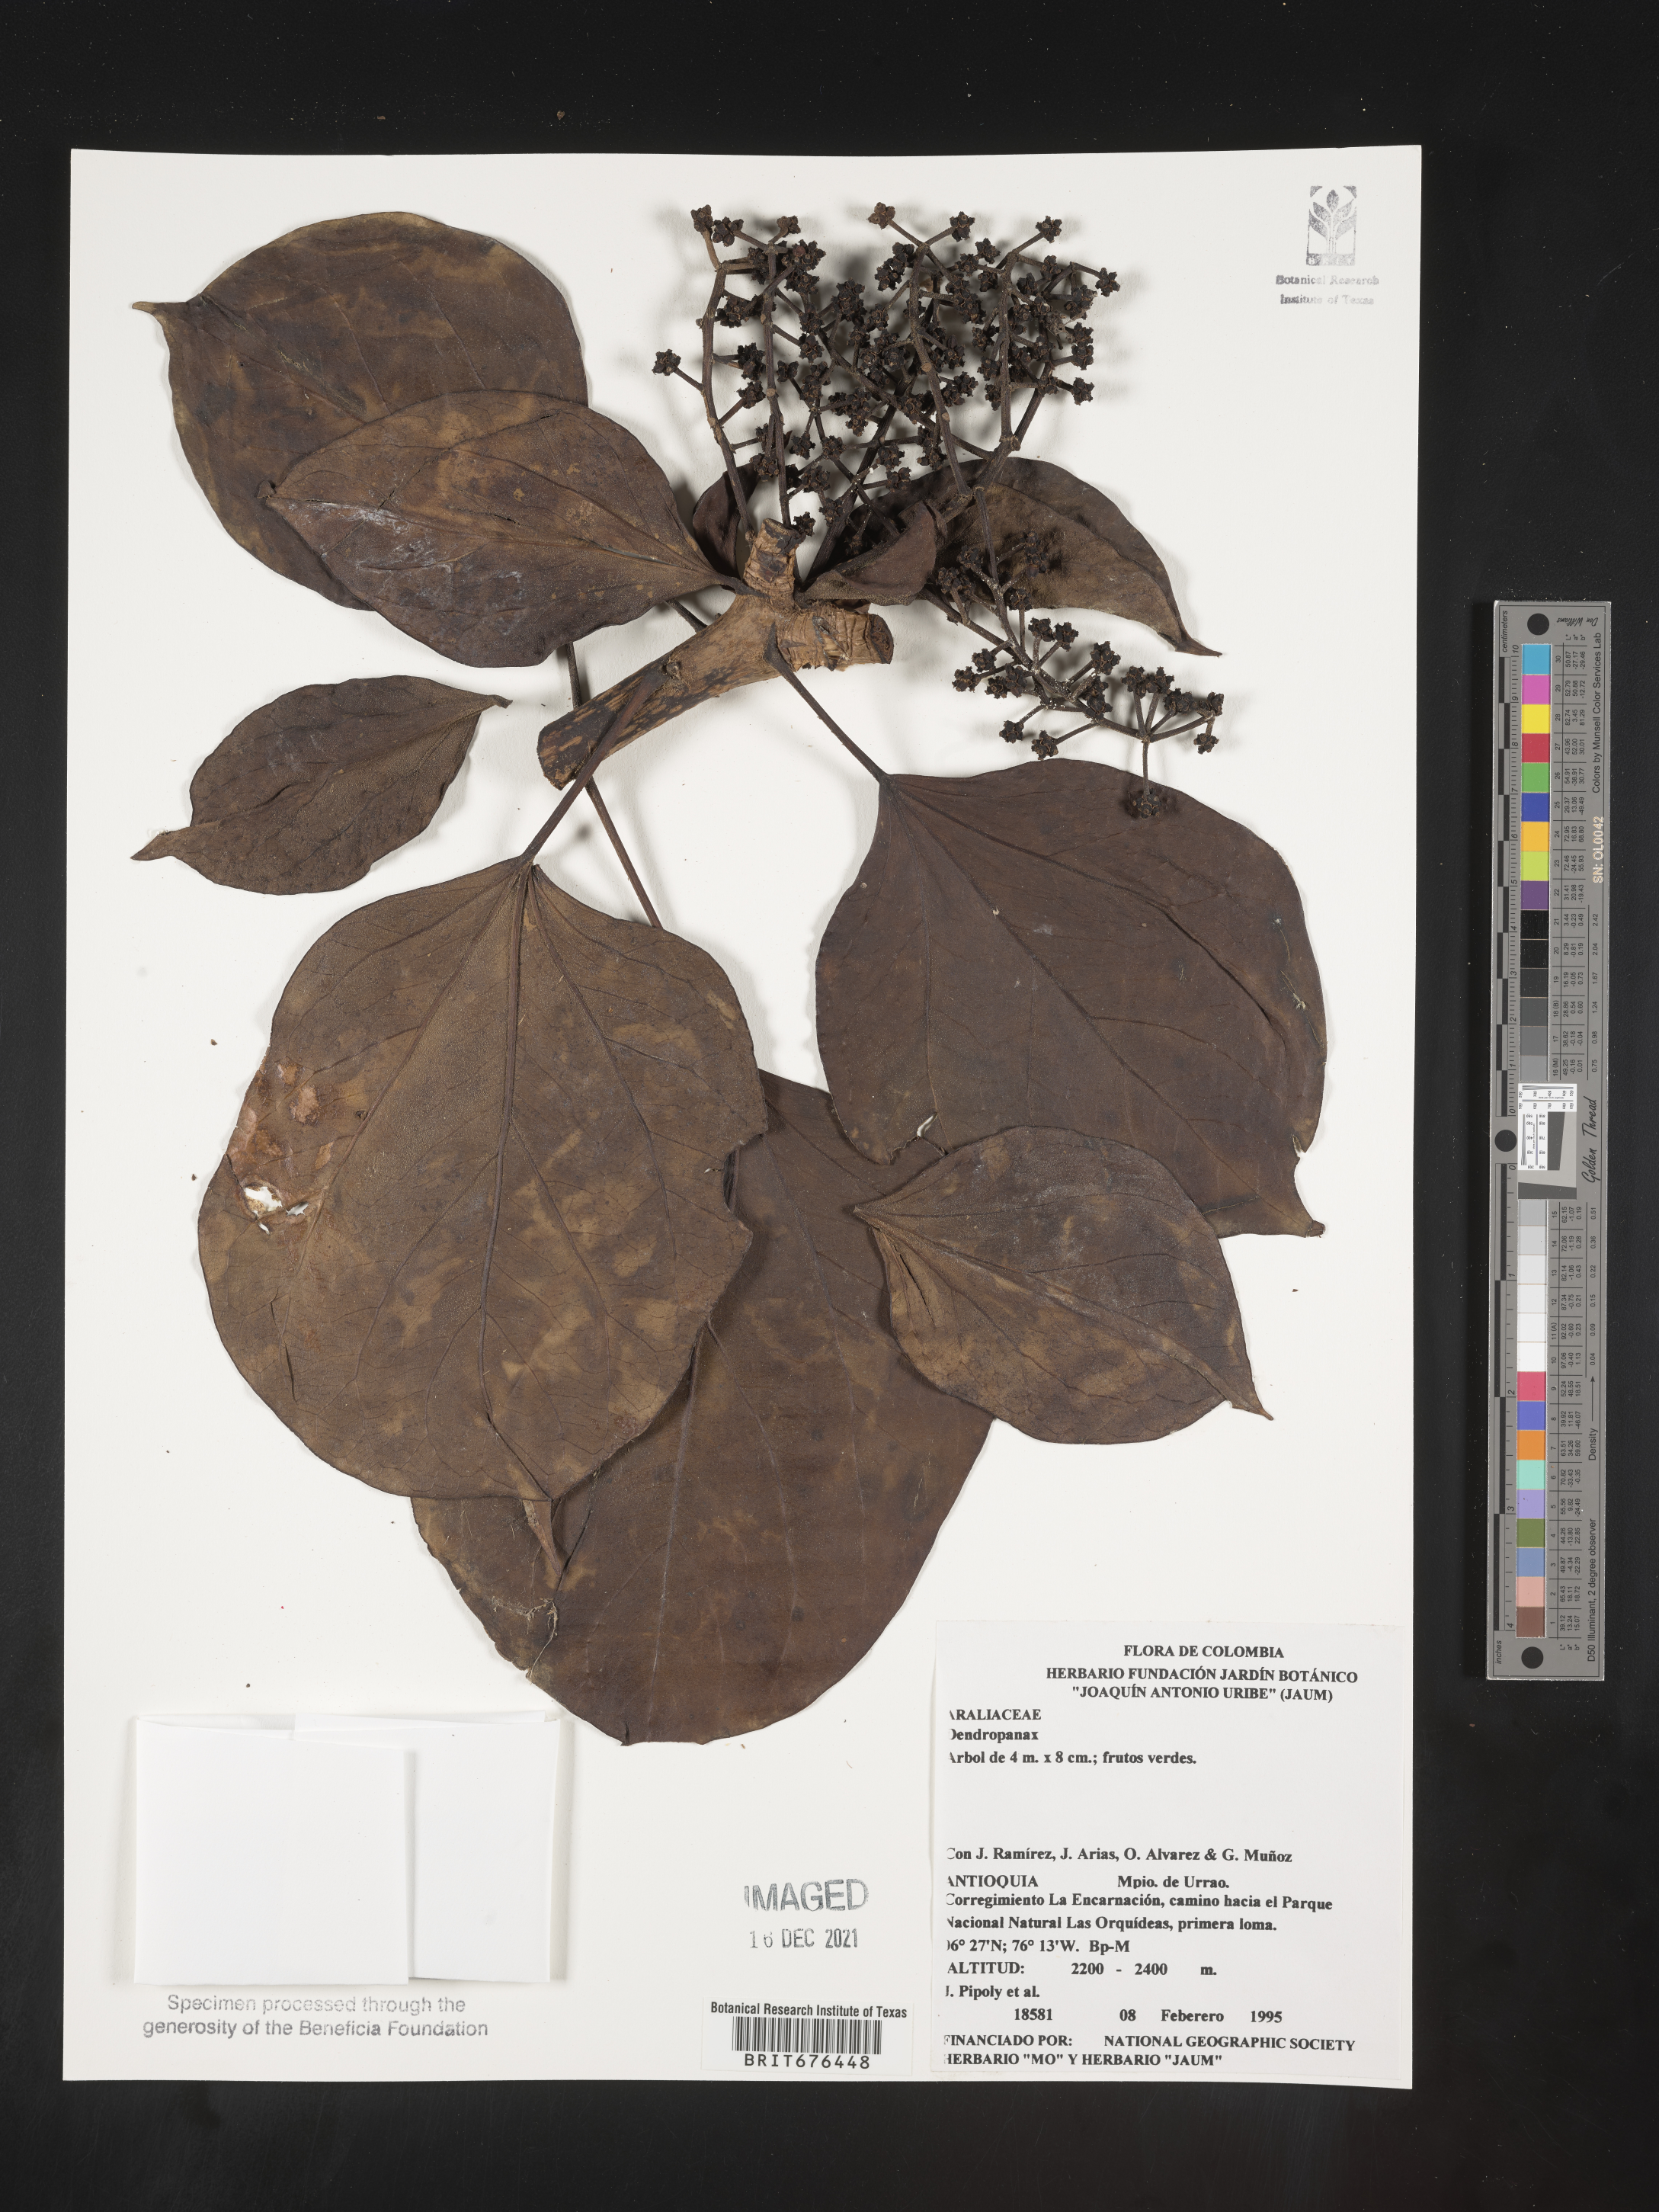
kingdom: Plantae
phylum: Tracheophyta
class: Magnoliopsida
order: Apiales
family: Araliaceae
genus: Dendropanax
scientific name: Dendropanax
